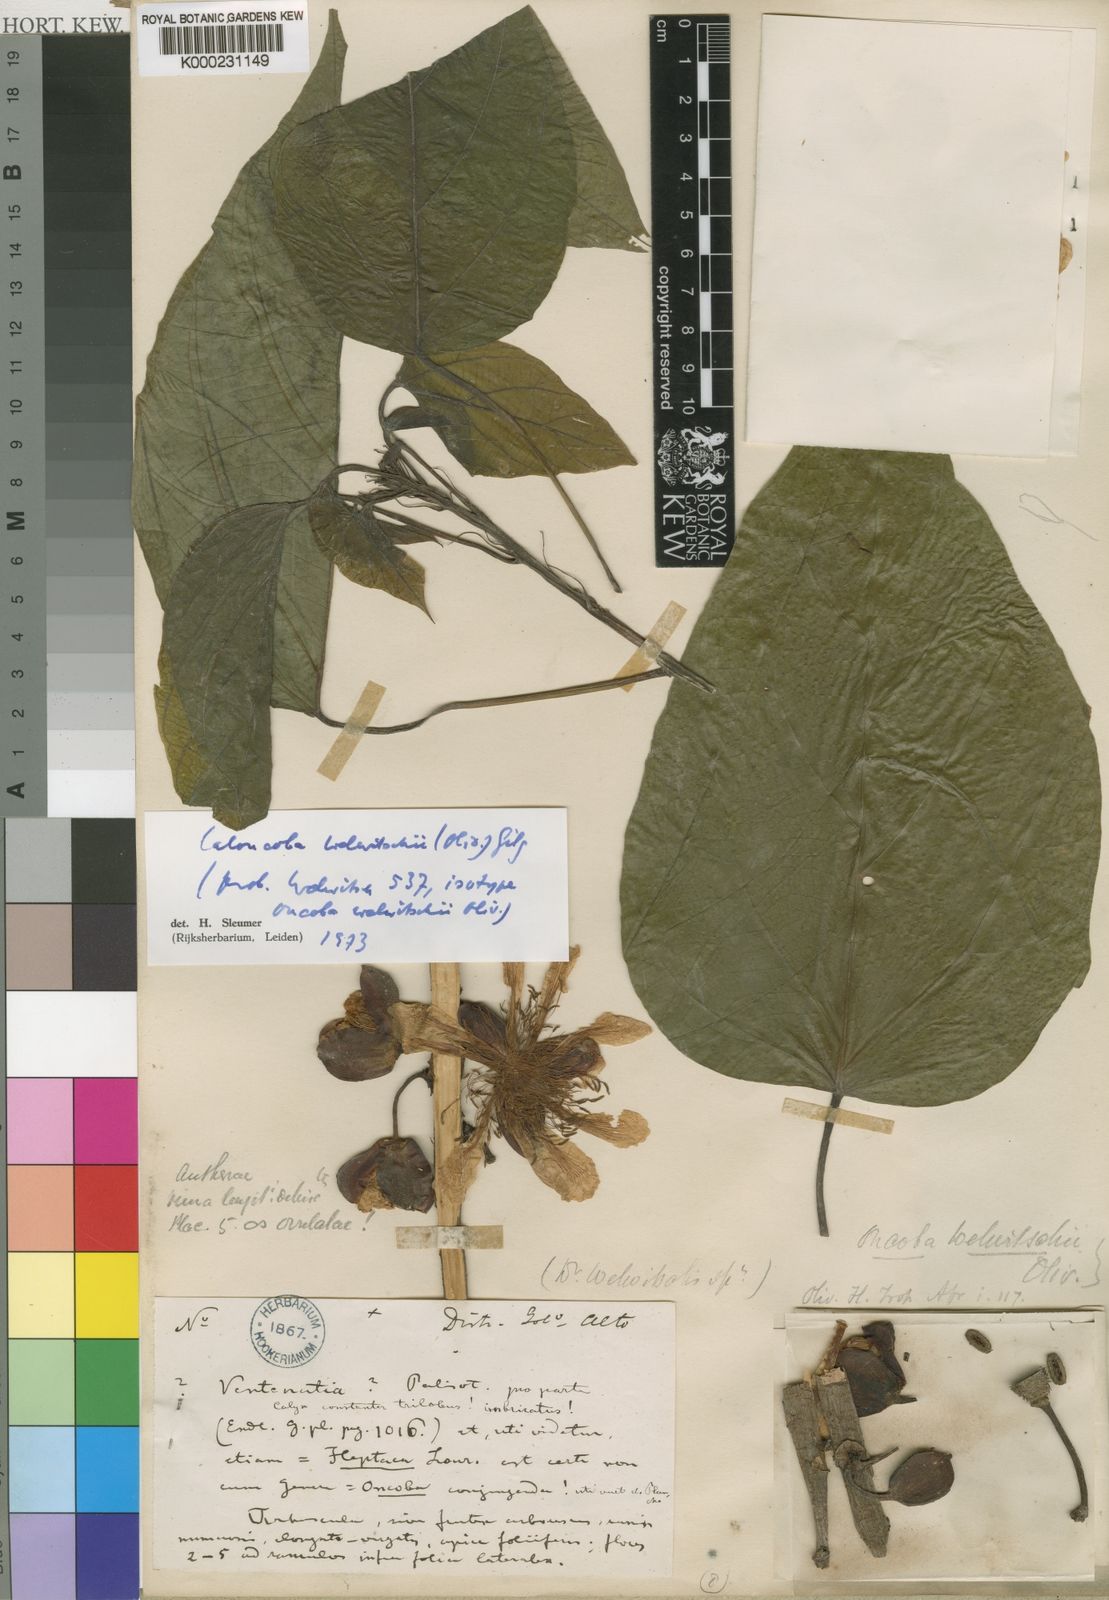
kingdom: Plantae
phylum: Tracheophyta
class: Magnoliopsida
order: Malpighiales
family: Achariaceae
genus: Caloncoba
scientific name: Caloncoba welwitschii
